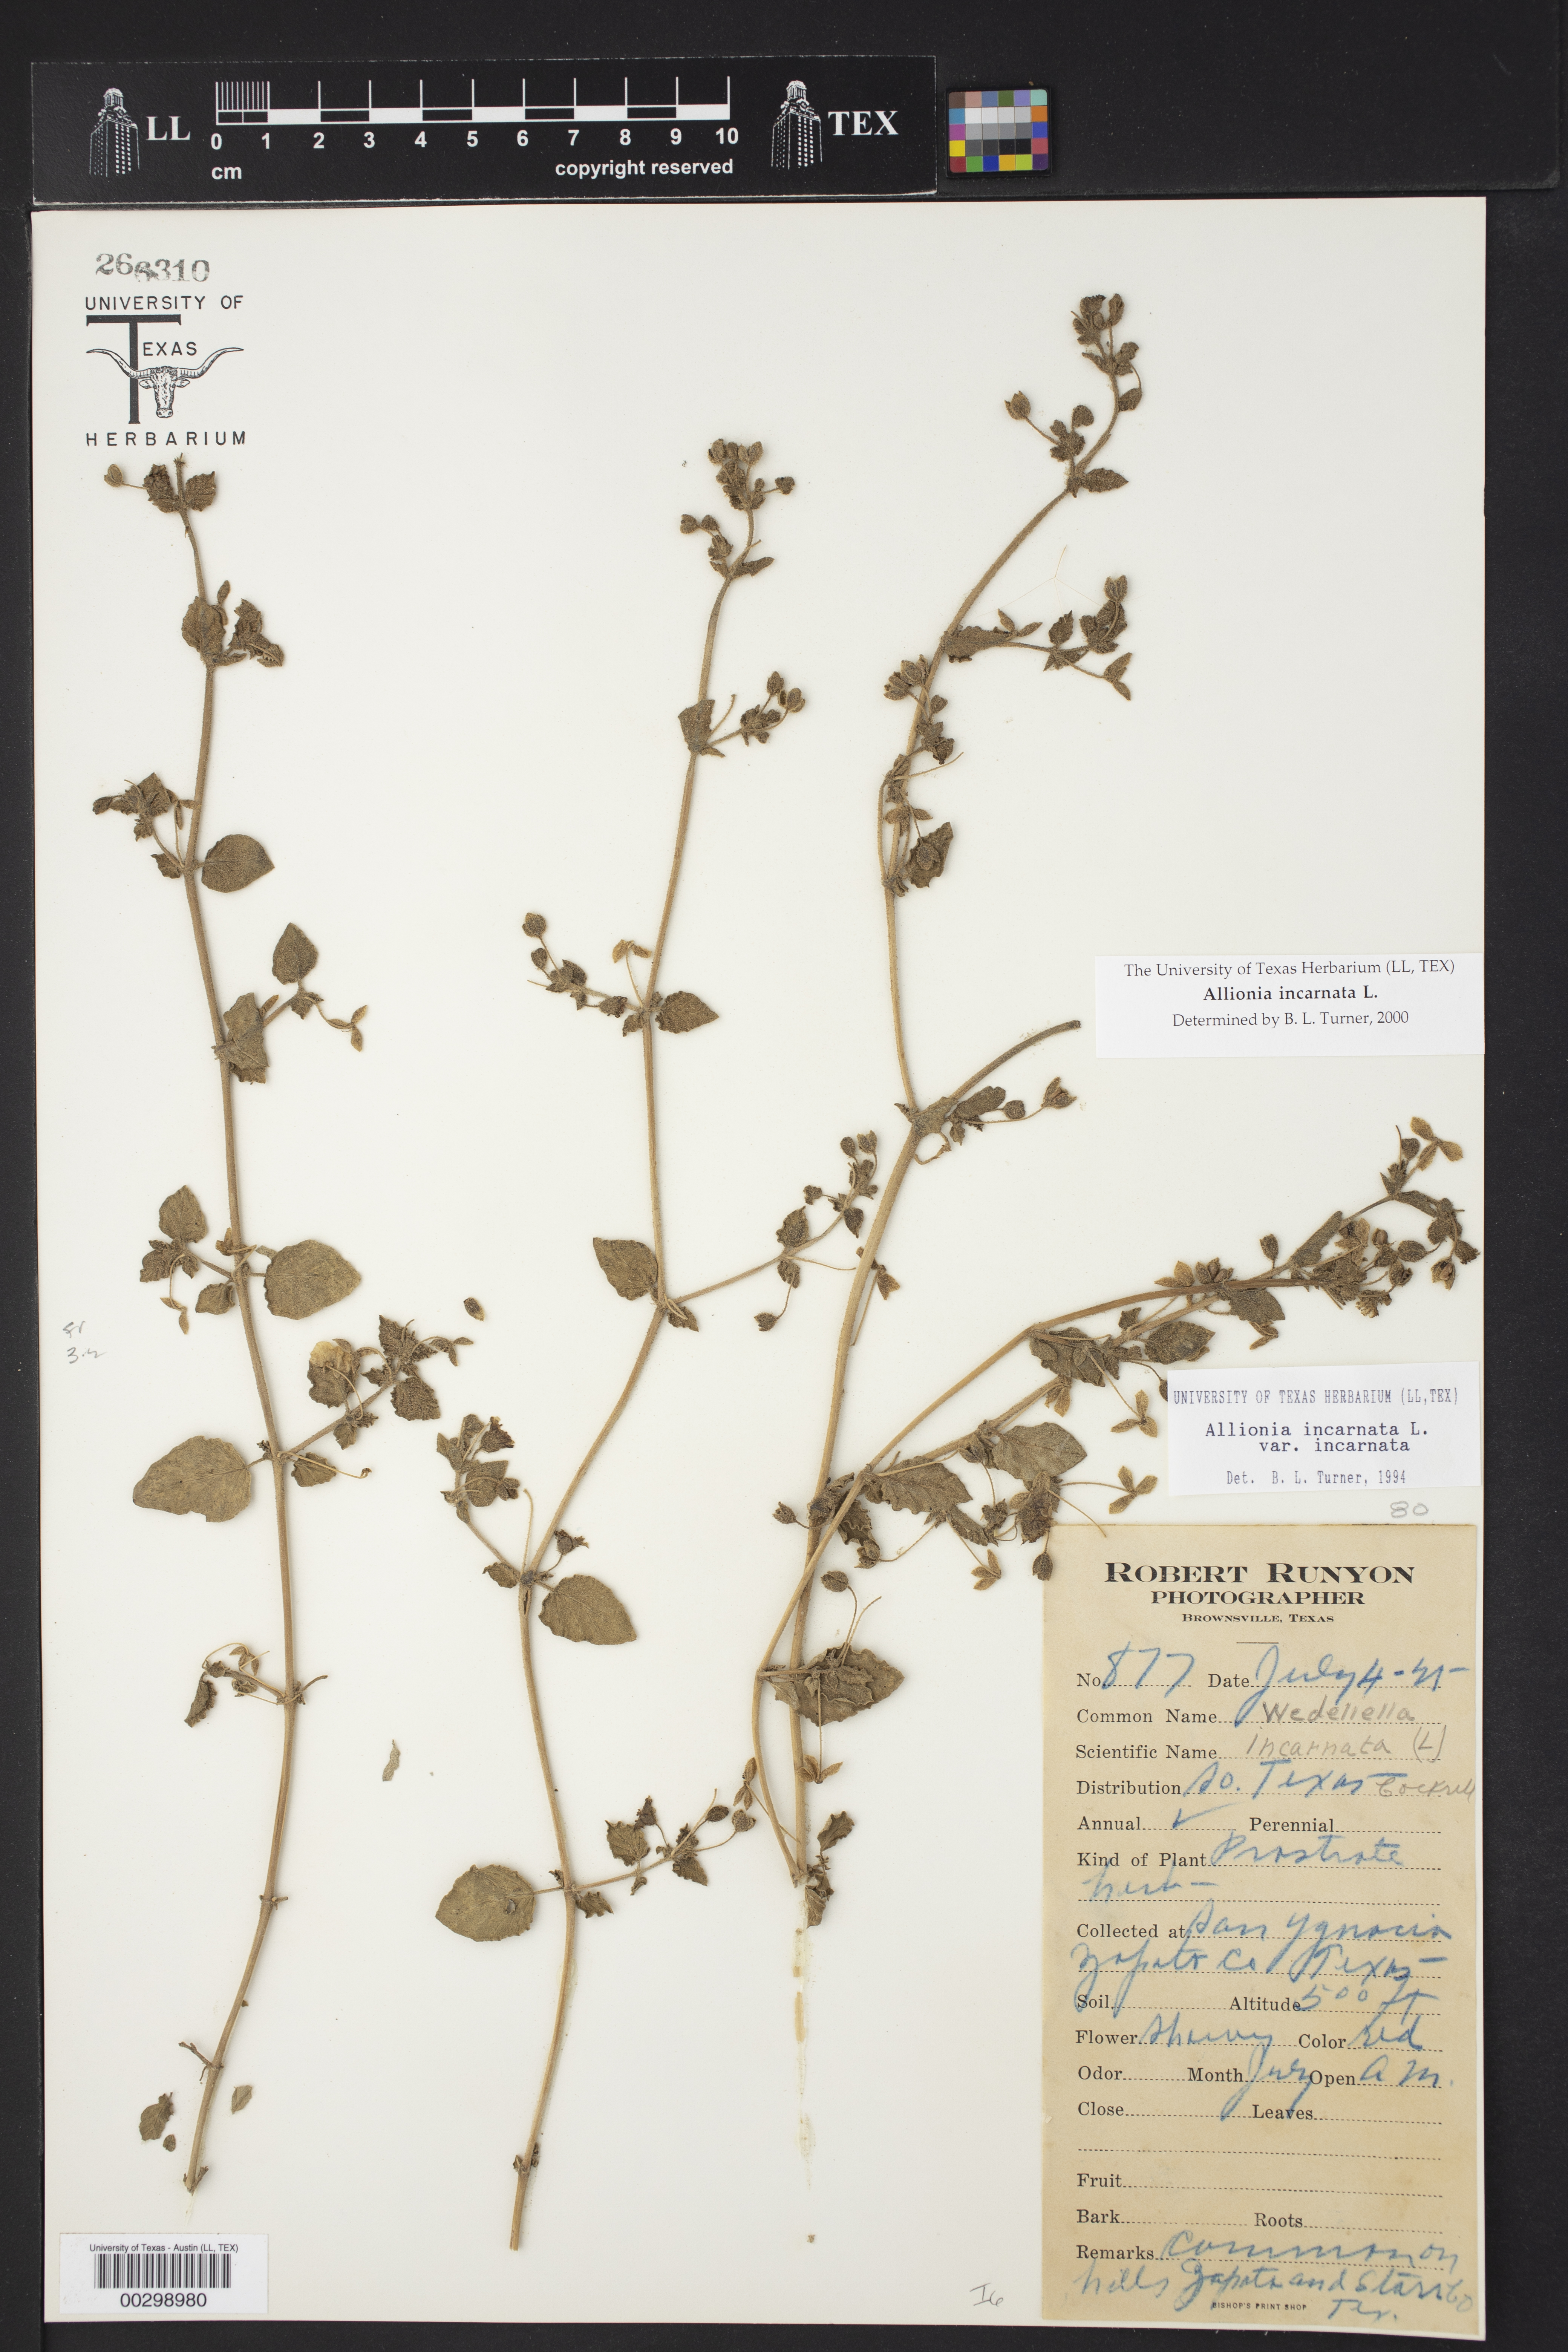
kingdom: Plantae
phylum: Tracheophyta
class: Magnoliopsida
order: Caryophyllales
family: Nyctaginaceae
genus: Allionia
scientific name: Allionia incarnata
